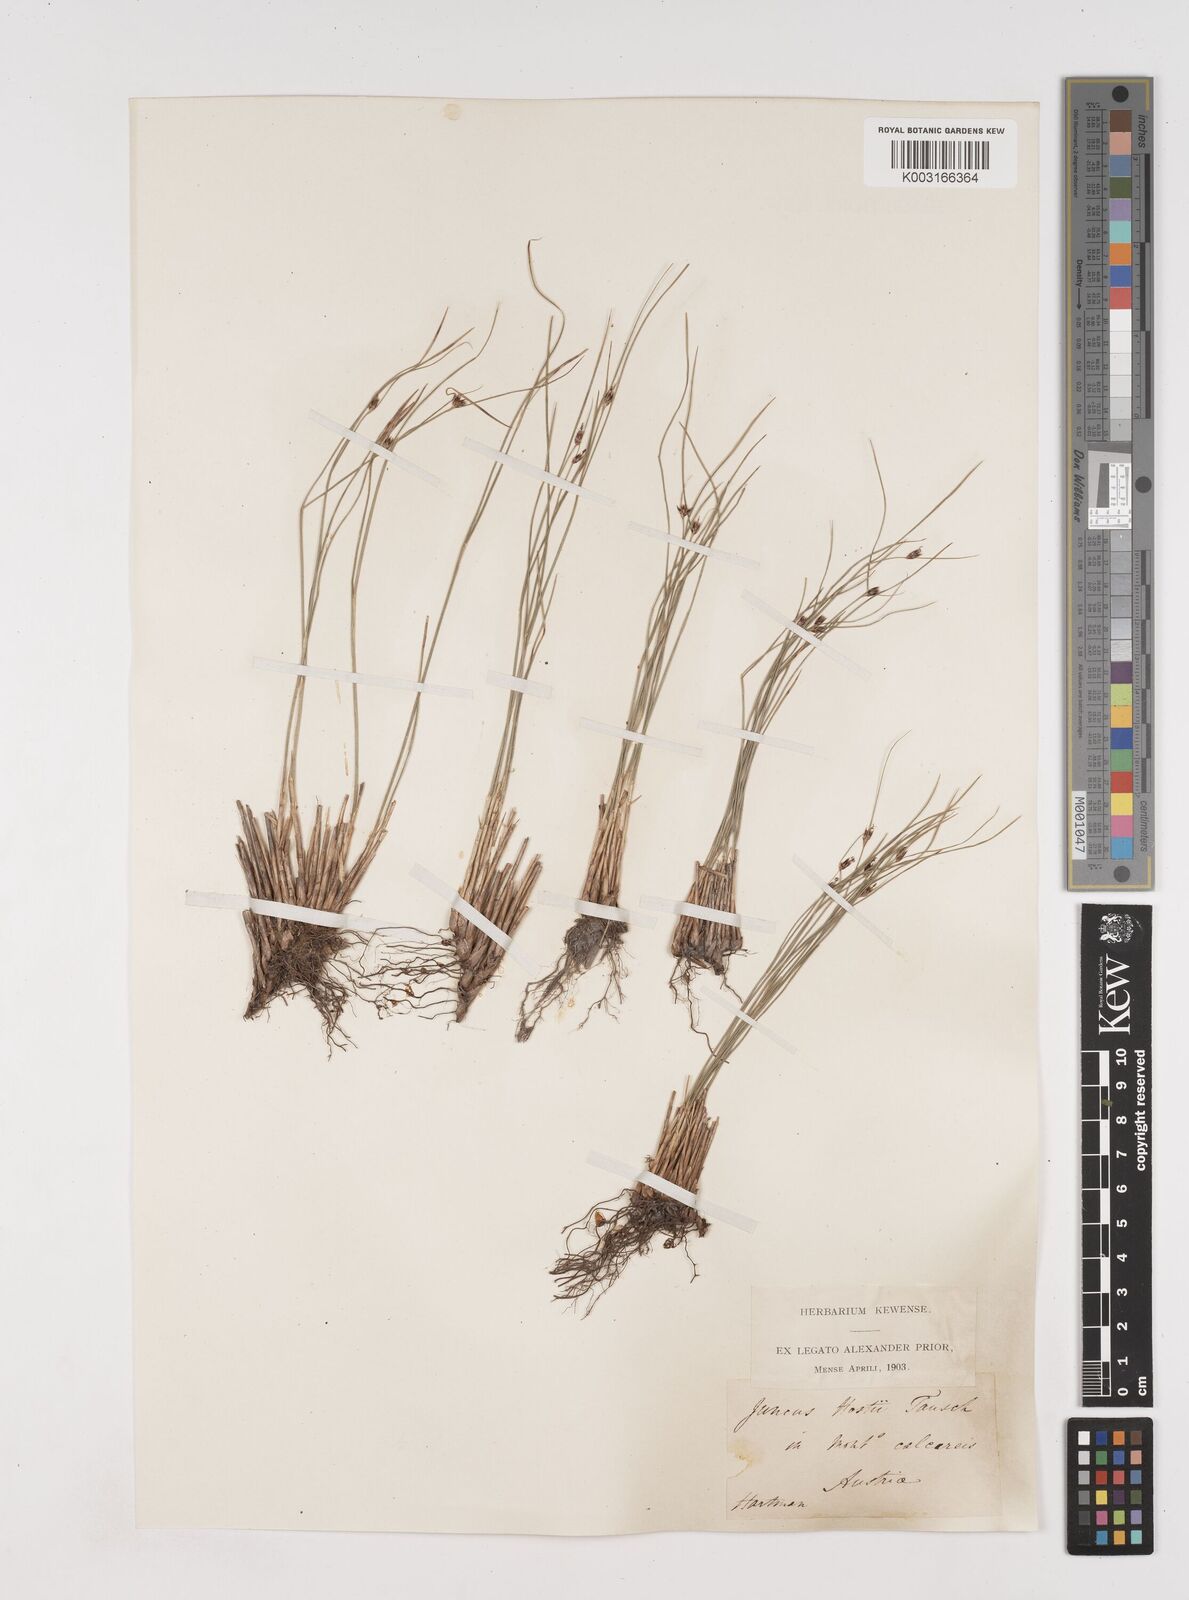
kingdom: Plantae
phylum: Tracheophyta
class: Liliopsida
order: Poales
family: Juncaceae
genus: Oreojuncus
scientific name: Oreojuncus trifidus
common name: Highland rush
